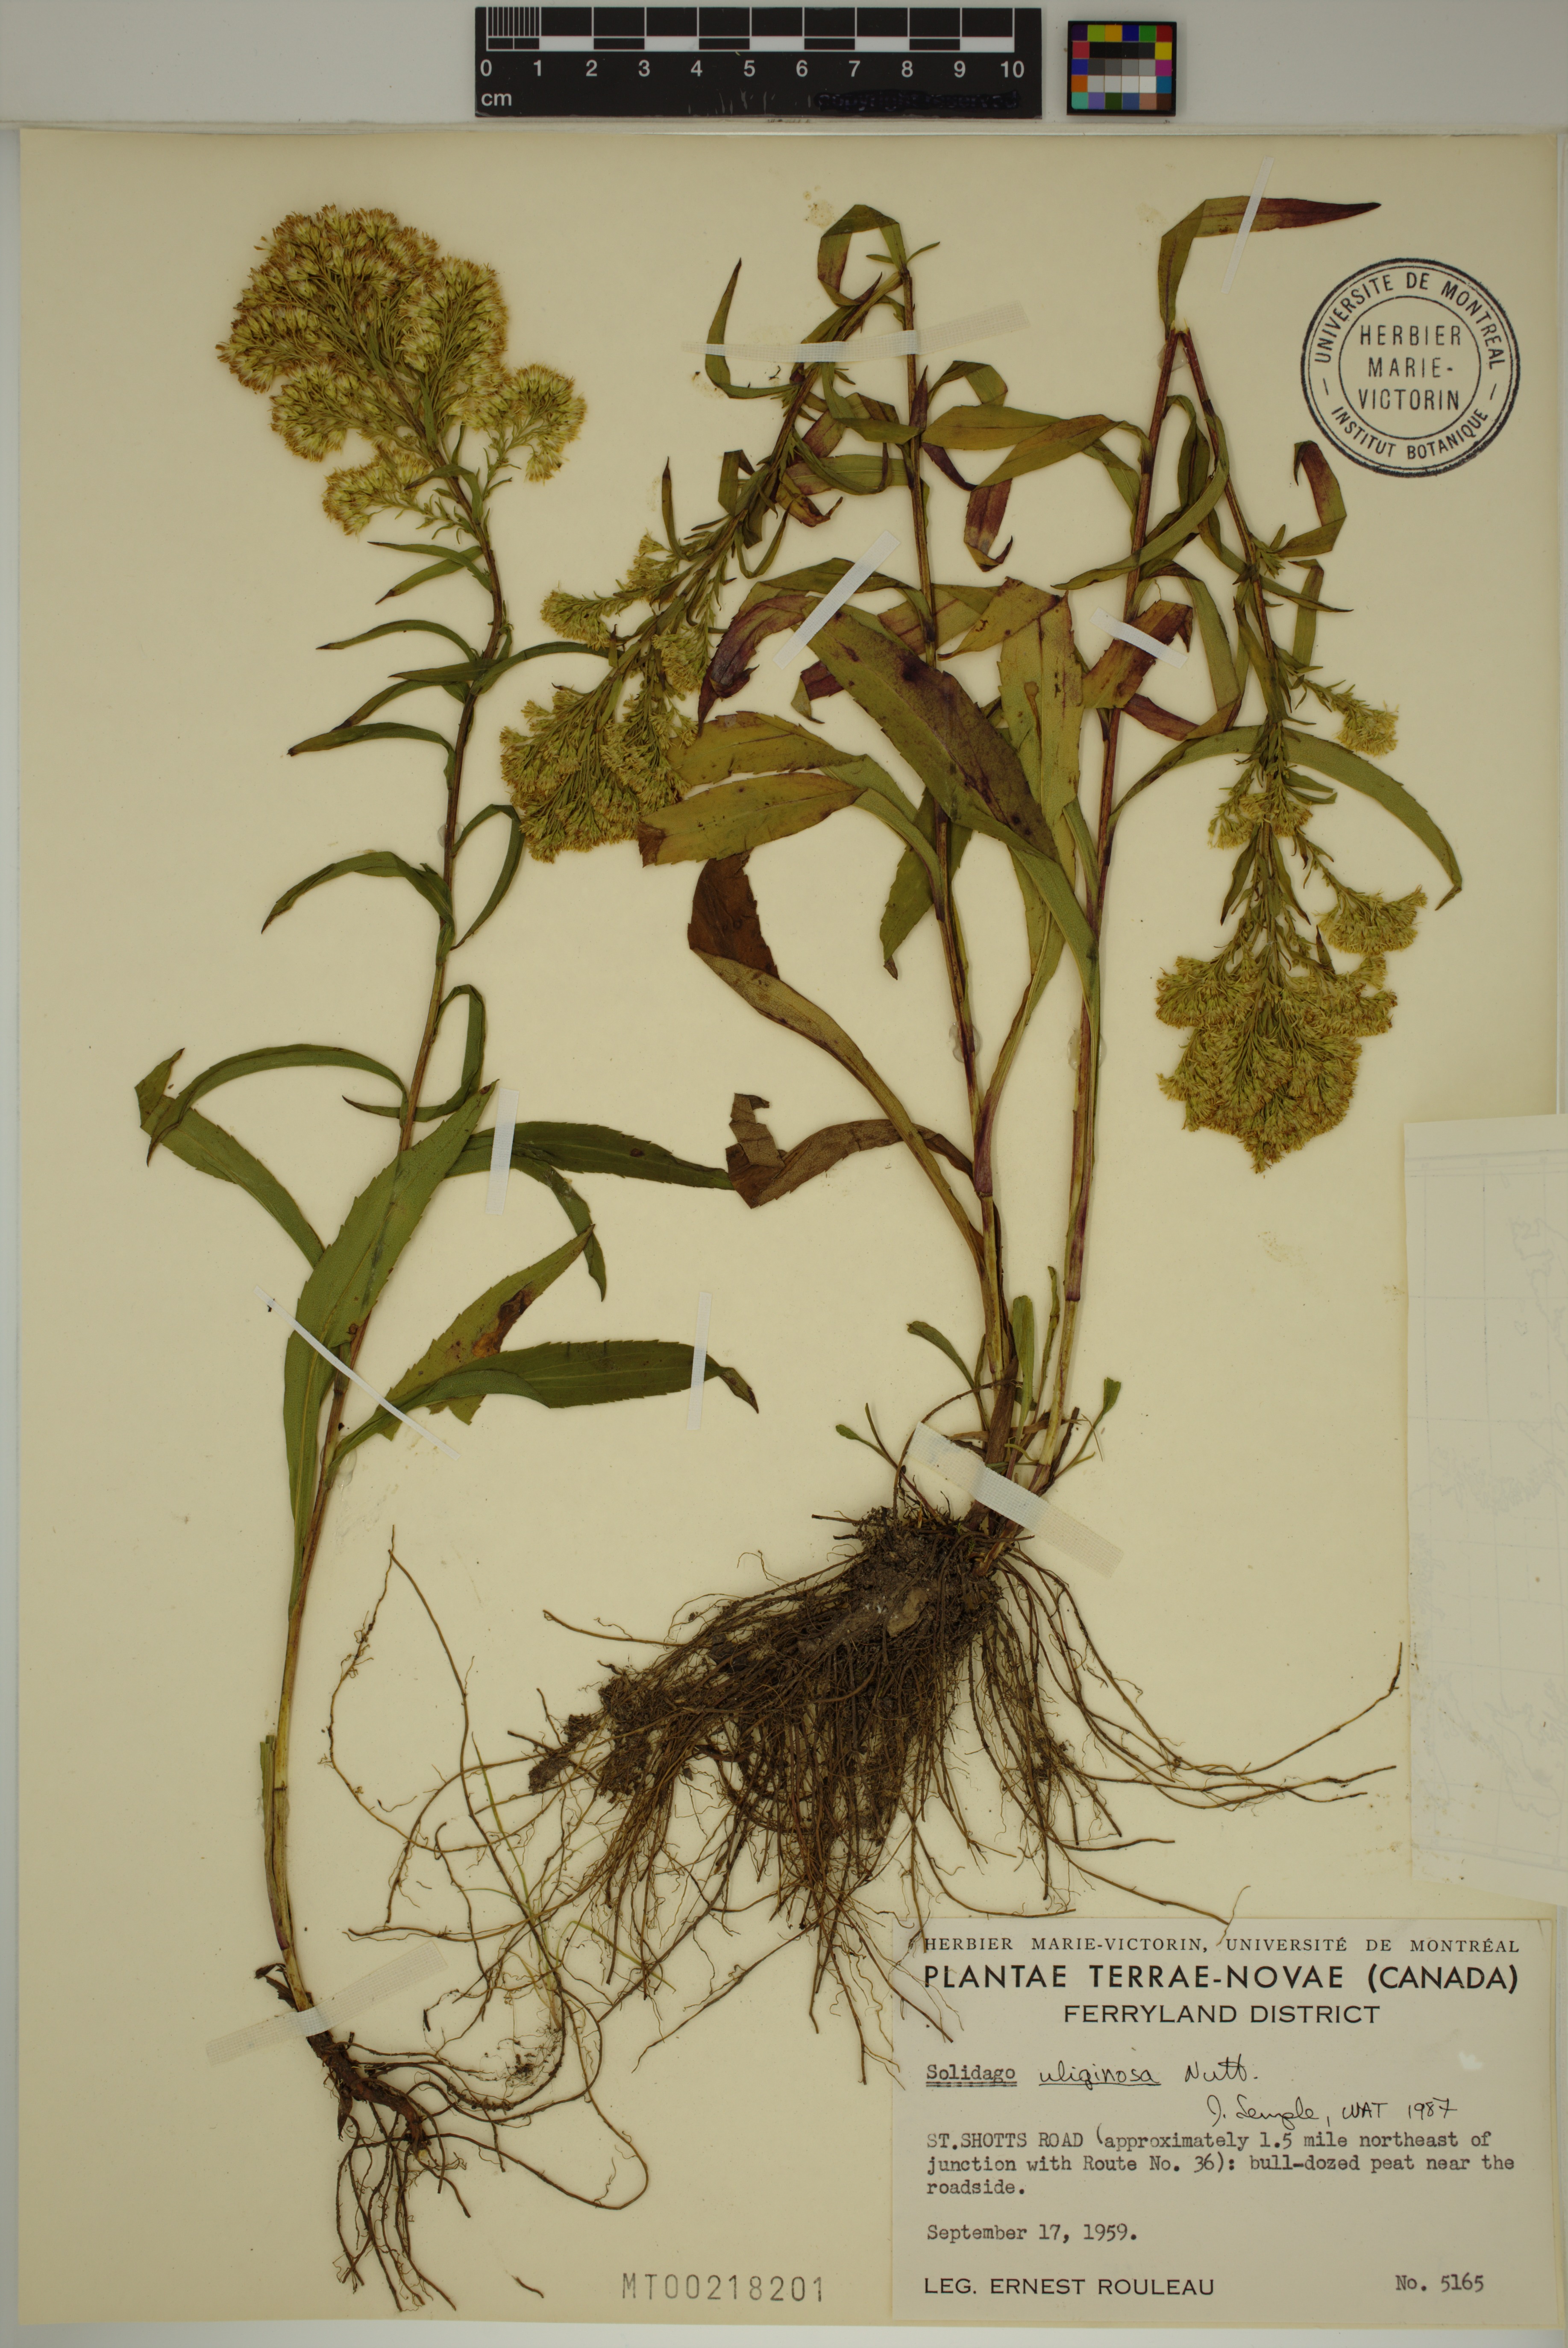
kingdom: Plantae
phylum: Tracheophyta
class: Magnoliopsida
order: Asterales
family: Asteraceae
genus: Solidago
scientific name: Solidago uliginosa
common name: Bog goldenrod
